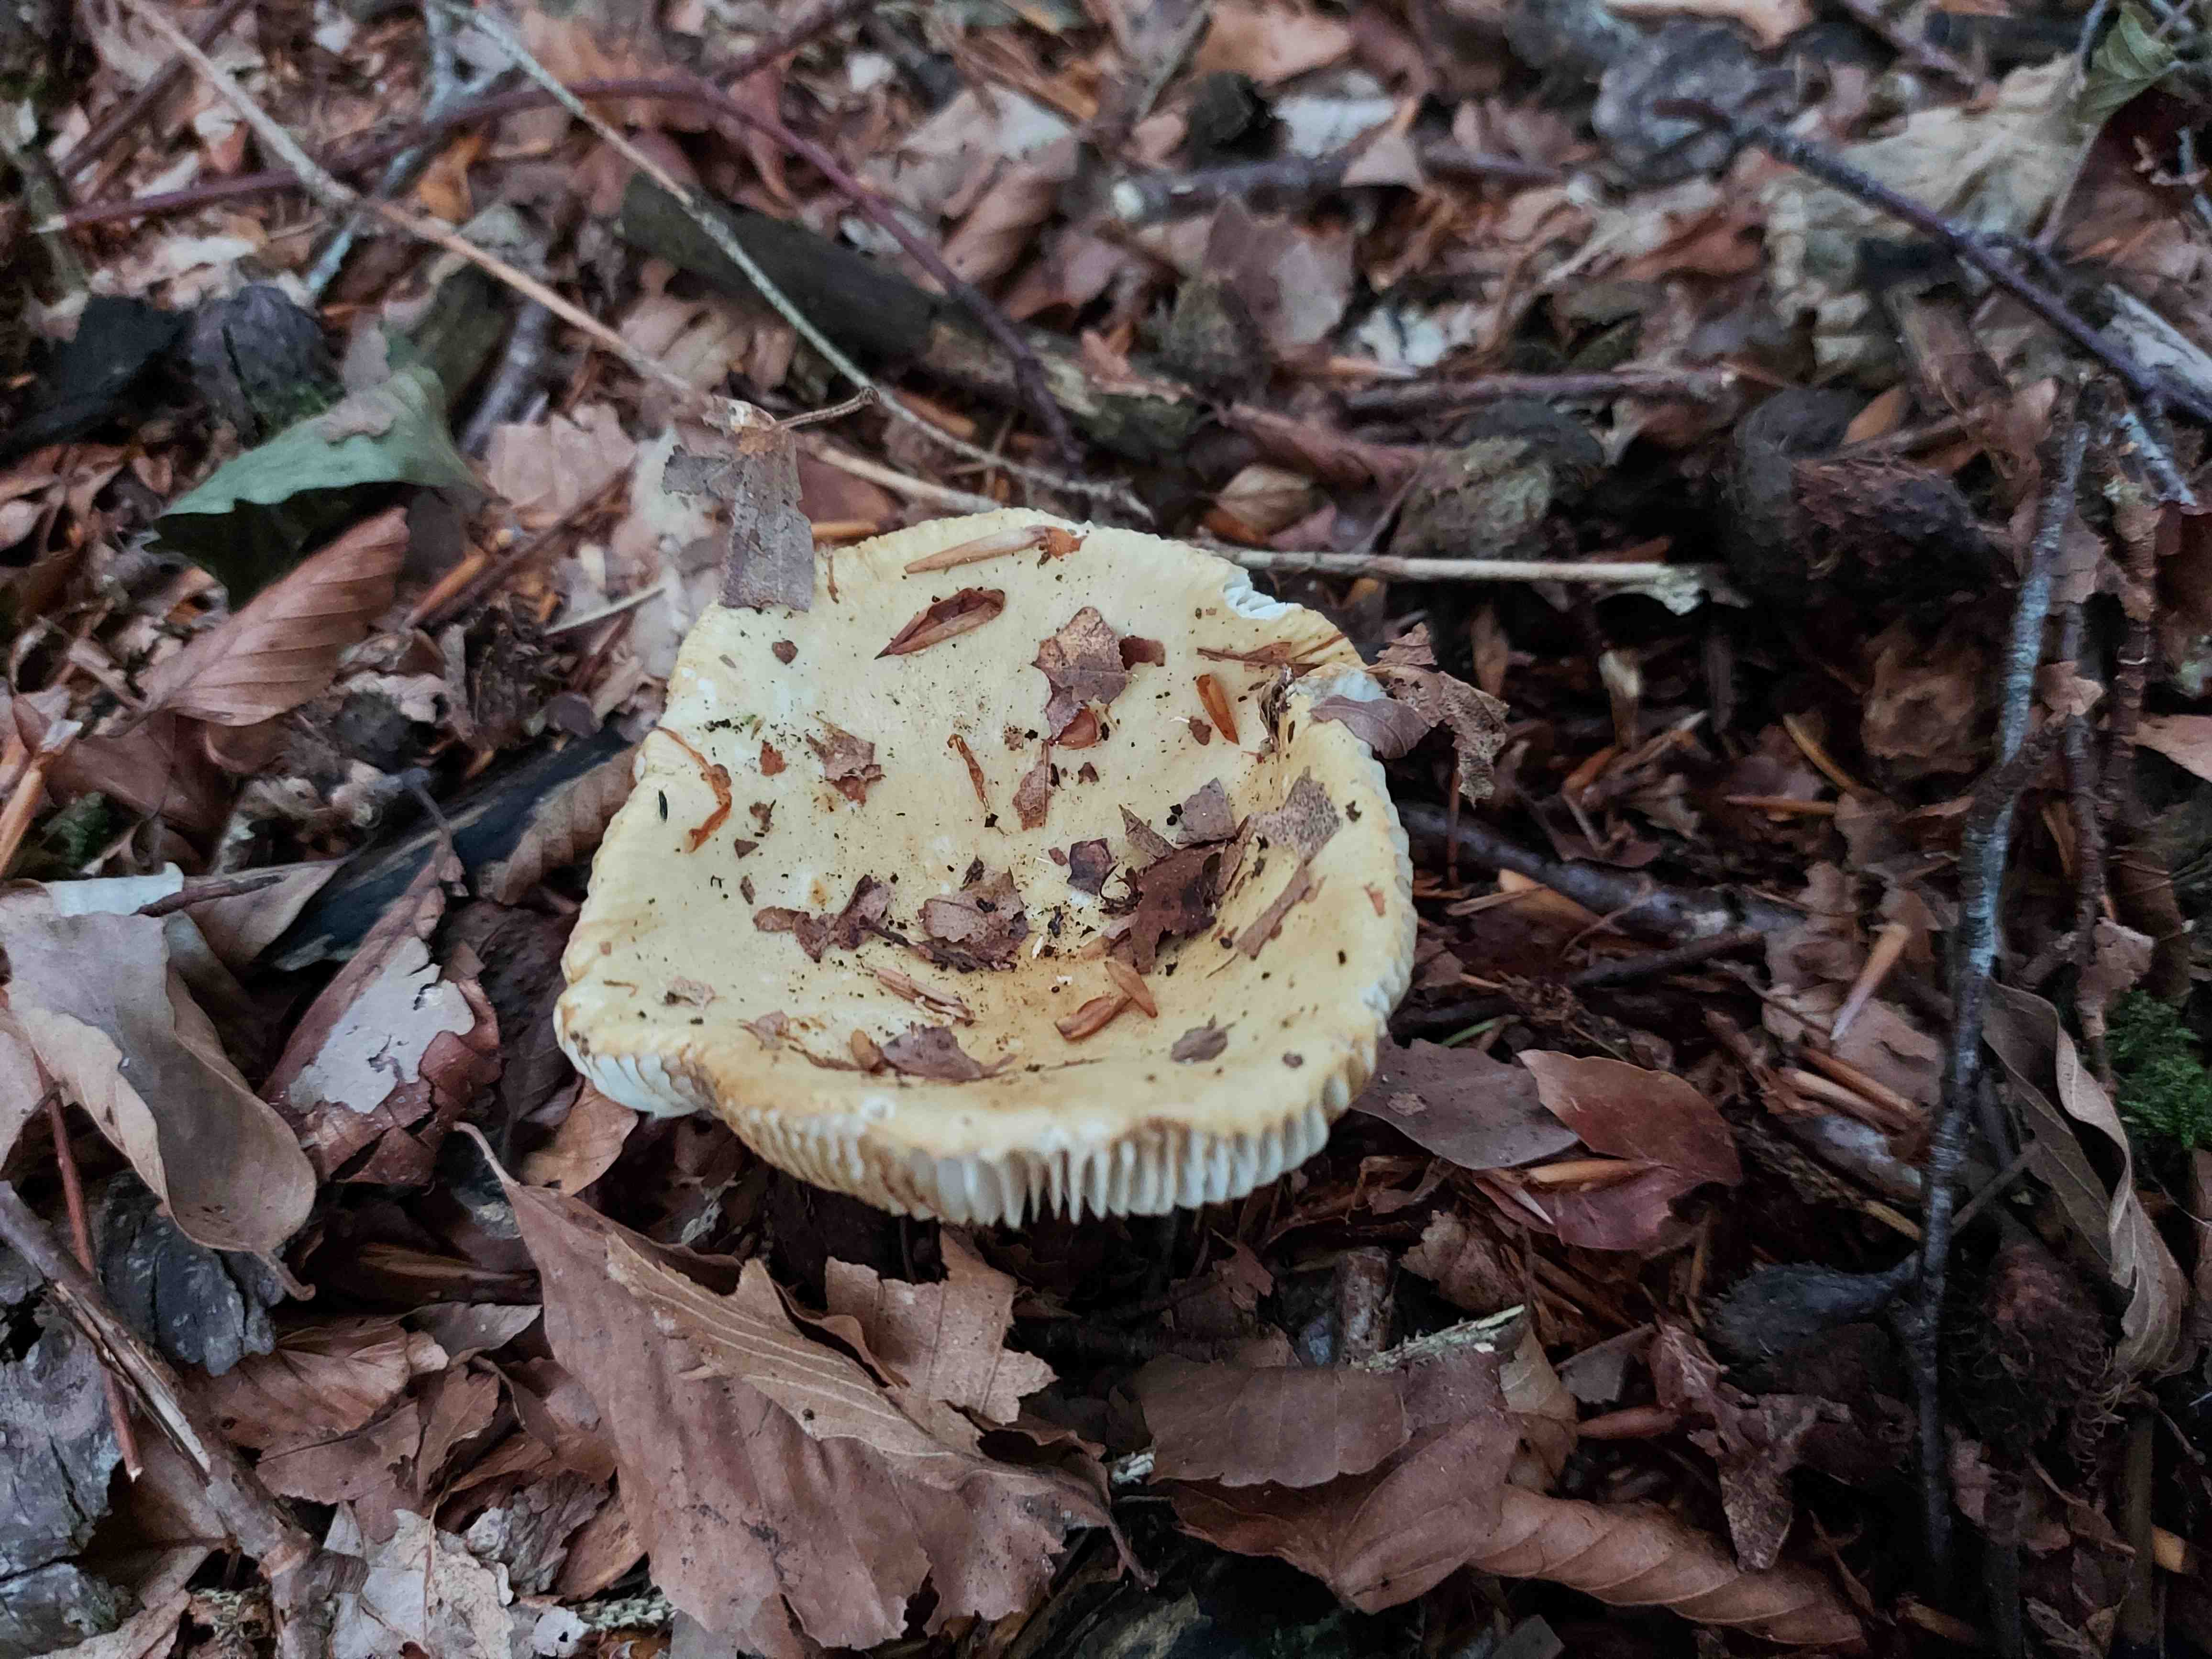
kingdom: Fungi
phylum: Basidiomycota
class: Agaricomycetes
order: Russulales
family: Russulaceae
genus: Russula
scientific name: Russula ochroleuca
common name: okkergul skørhat
